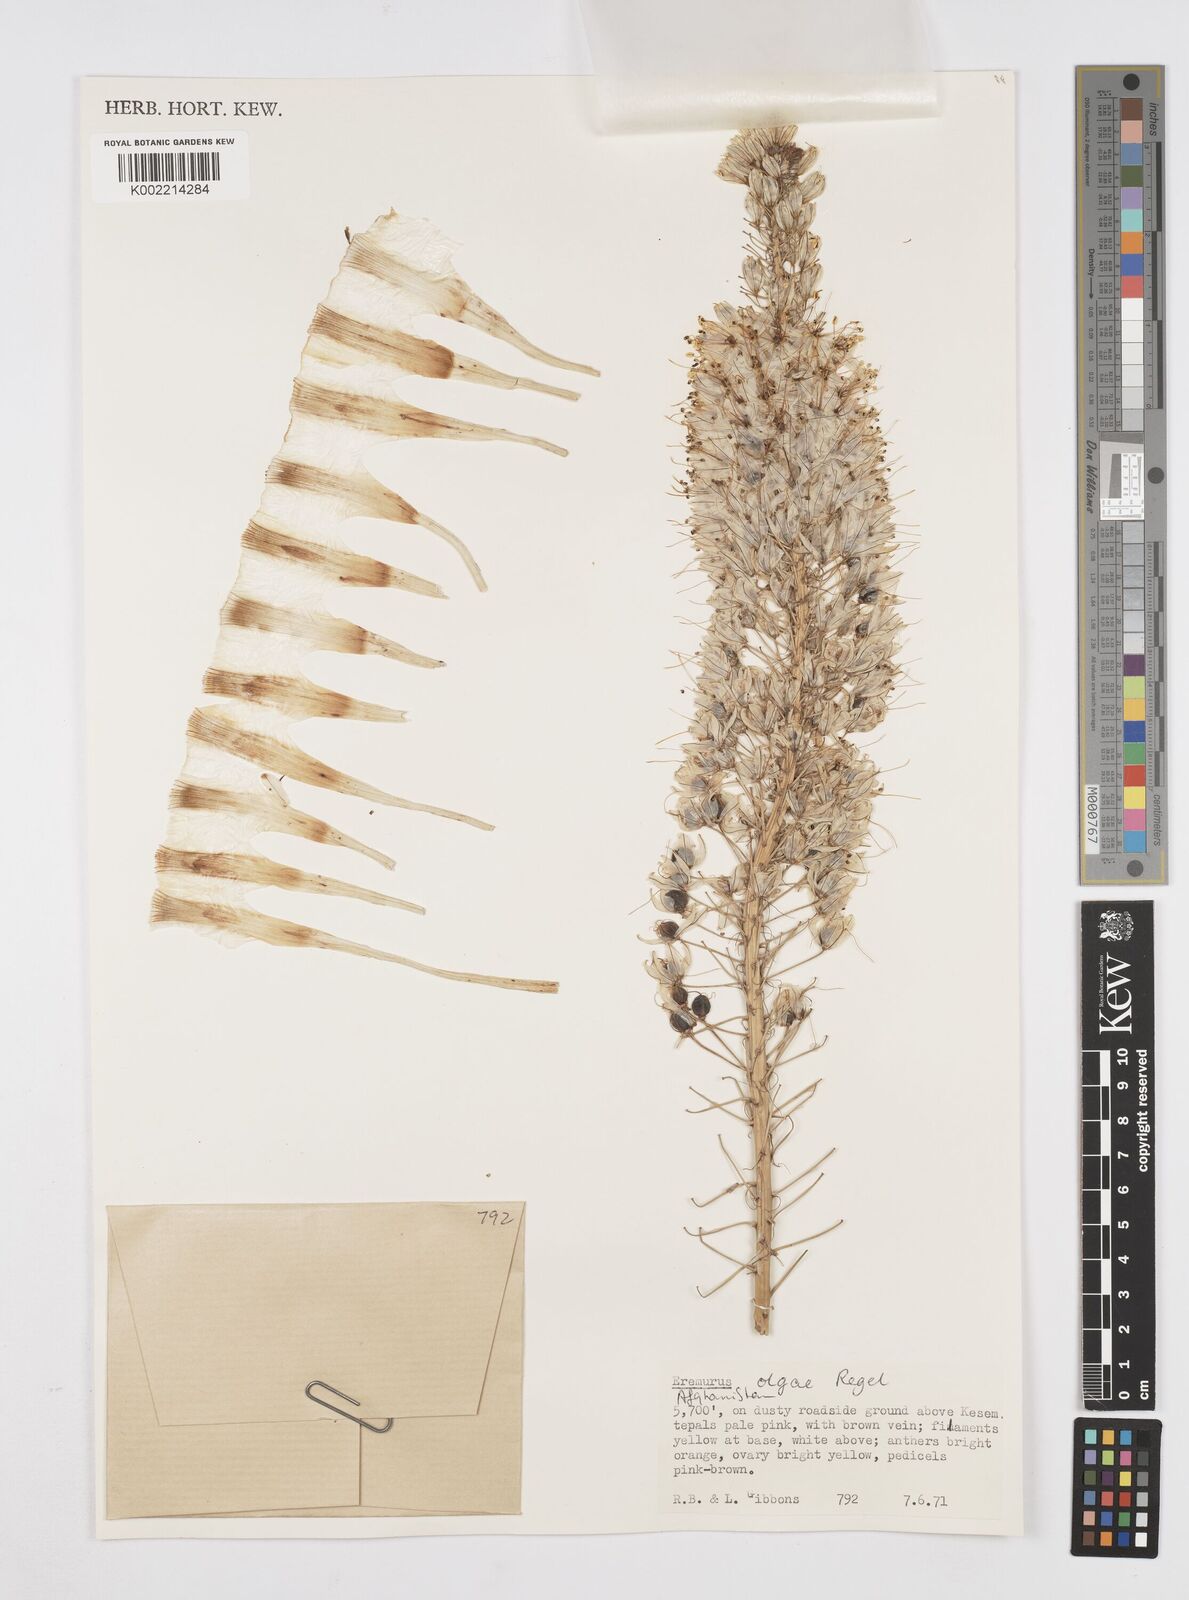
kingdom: Plantae
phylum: Tracheophyta
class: Liliopsida
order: Asparagales
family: Asphodelaceae
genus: Eremurus
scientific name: Eremurus olgae
